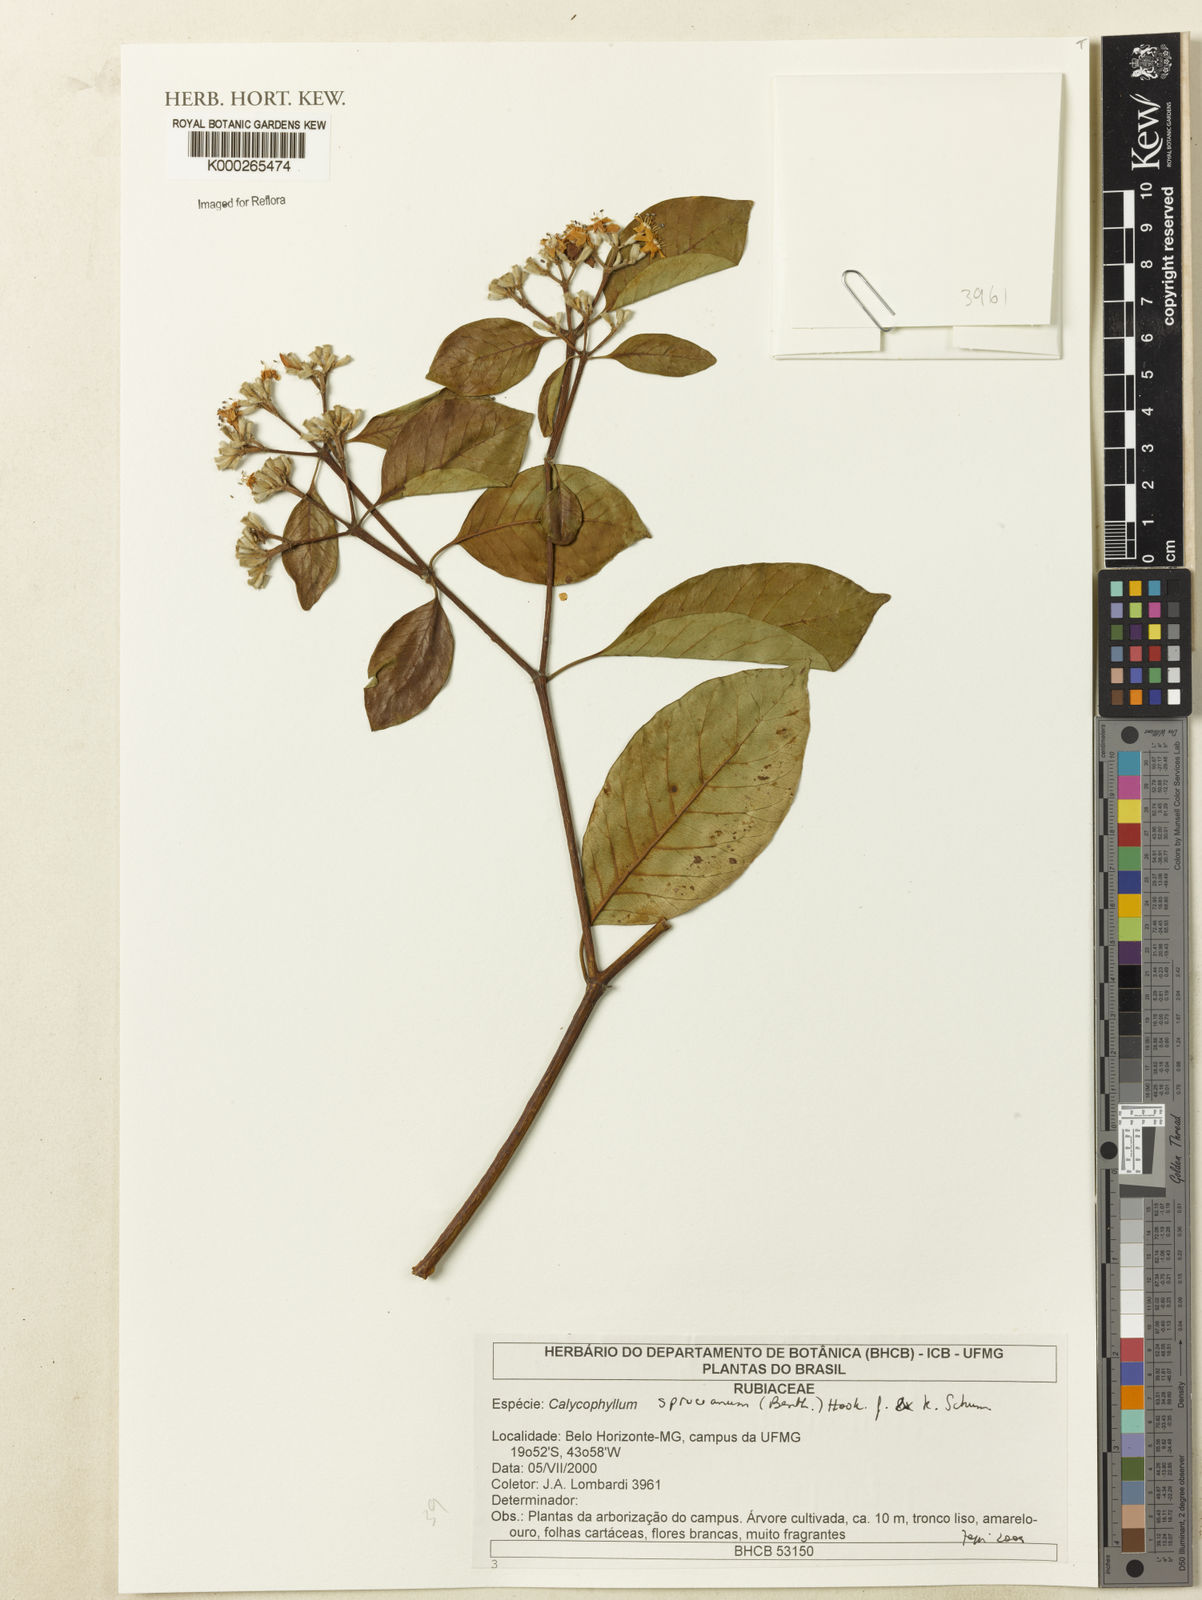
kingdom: Plantae
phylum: Tracheophyta
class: Magnoliopsida
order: Gentianales
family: Rubiaceae
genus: Calycophyllum
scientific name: Calycophyllum spruceanum
